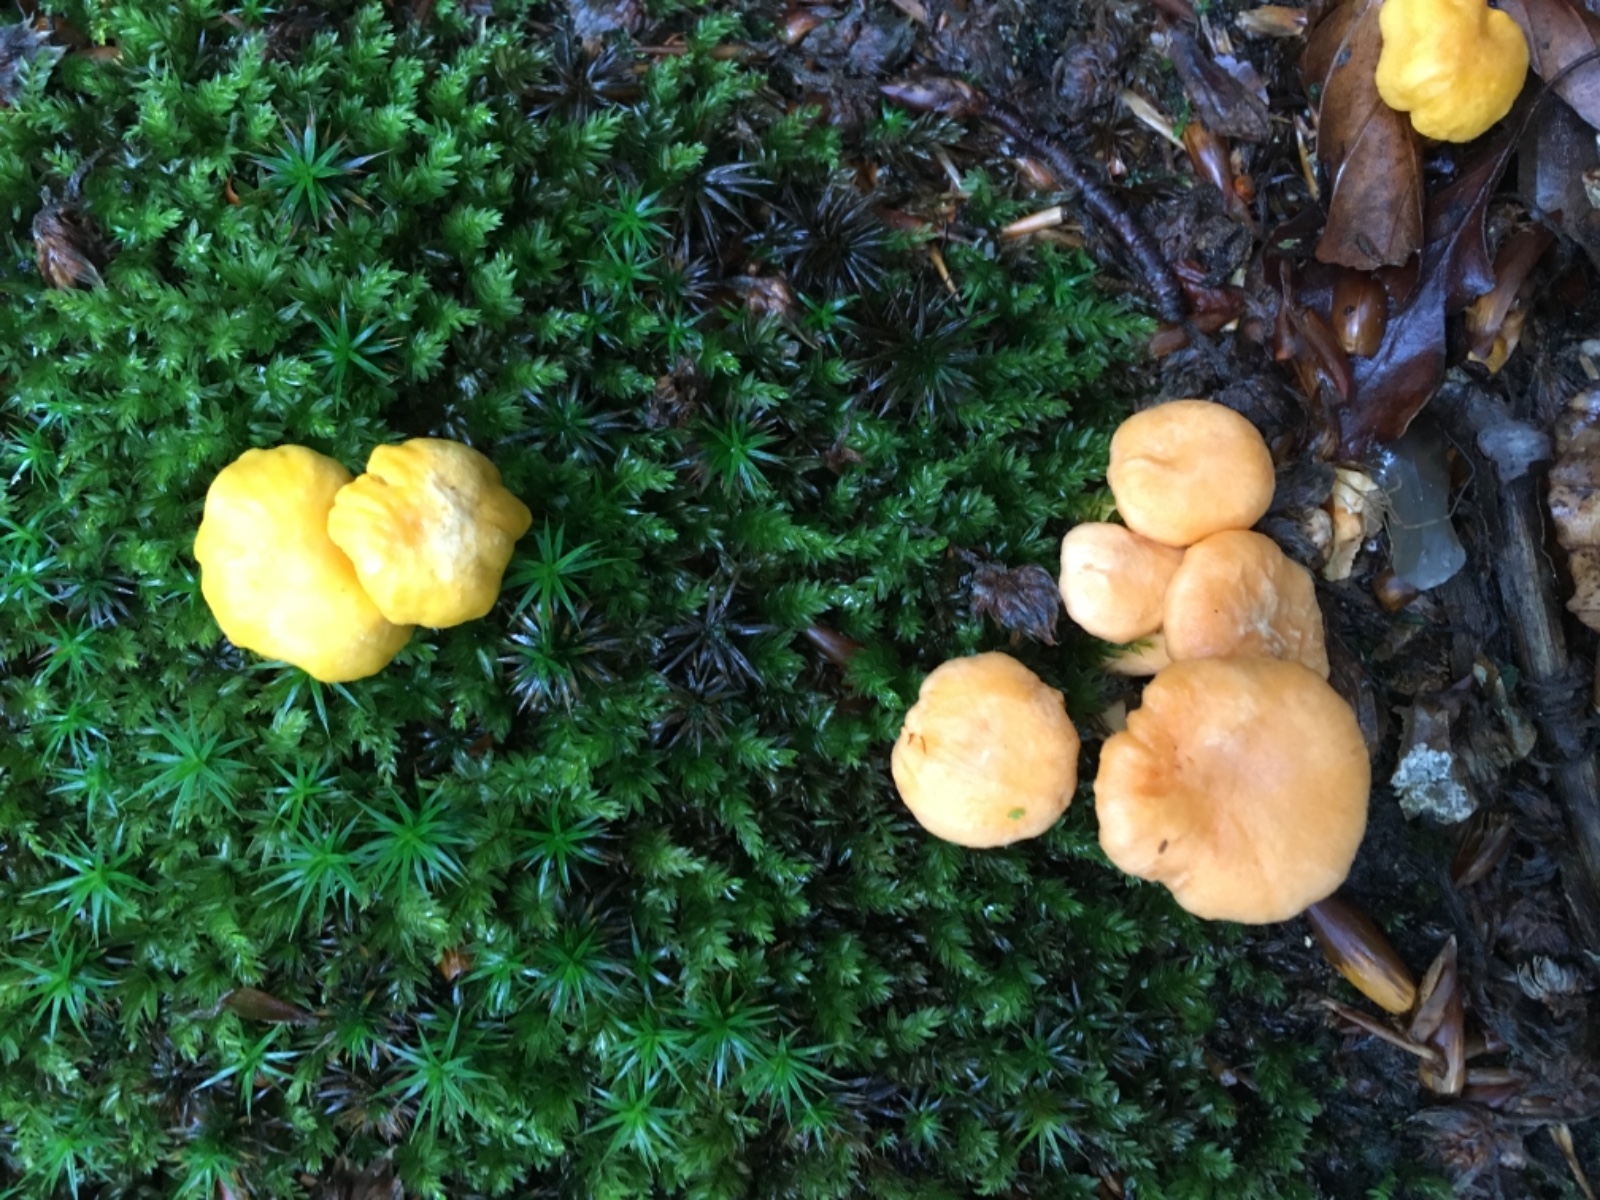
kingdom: Fungi
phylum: Basidiomycota
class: Agaricomycetes
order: Cantharellales
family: Hydnaceae
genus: Cantharellus
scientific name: Cantharellus cibarius
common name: almindelig kantarel
